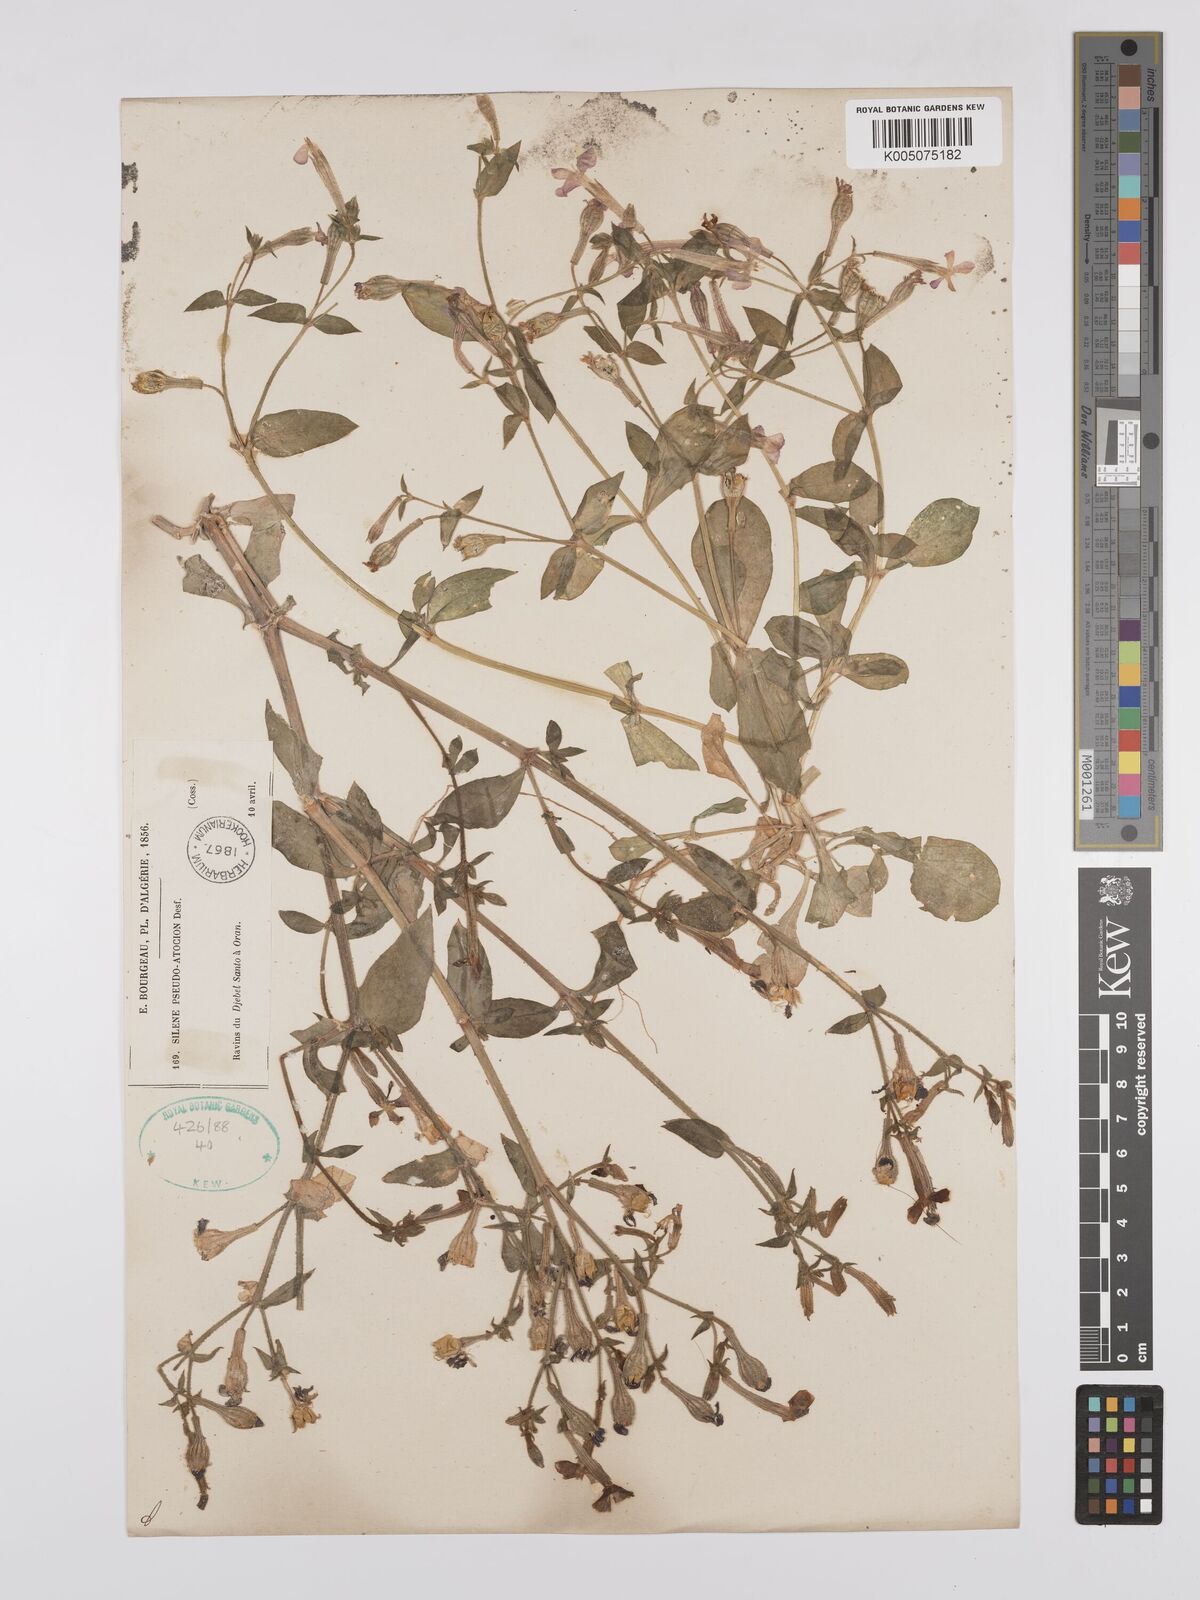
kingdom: Plantae
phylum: Tracheophyta
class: Magnoliopsida
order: Caryophyllales
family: Caryophyllaceae
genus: Silene
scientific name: Silene pseudoatocion
